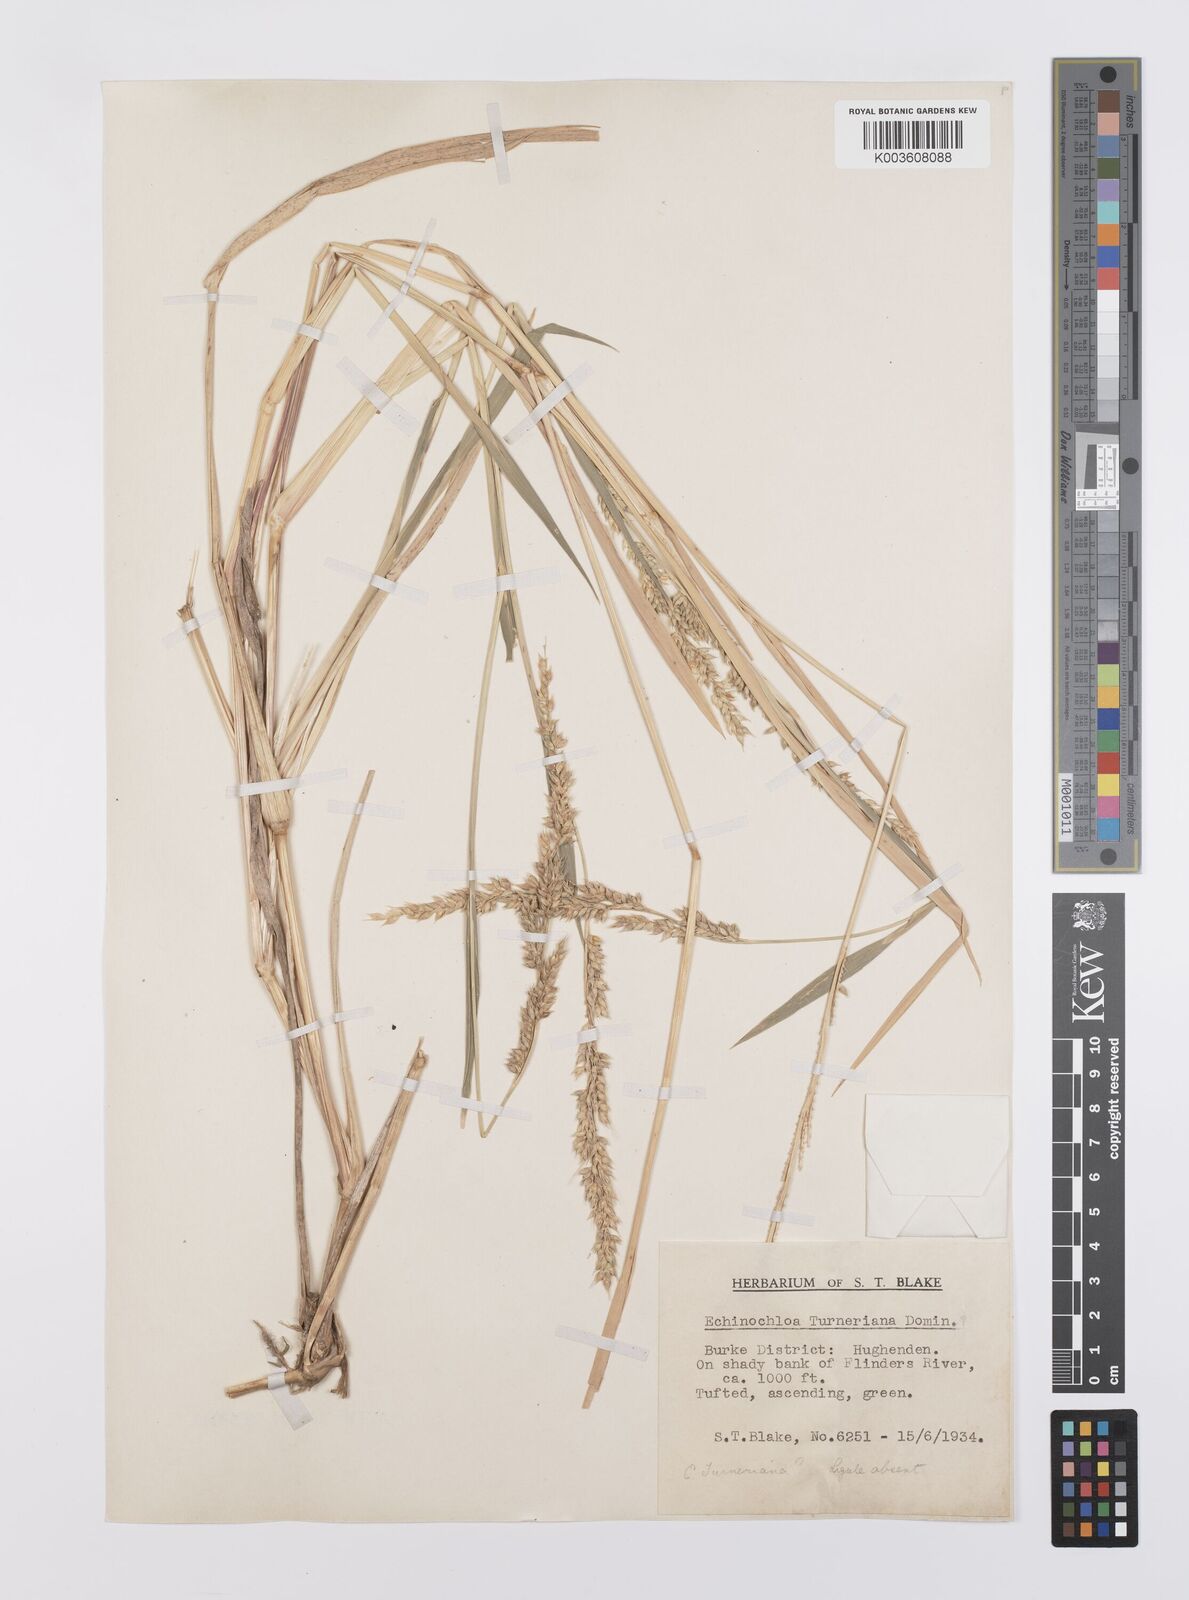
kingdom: Plantae
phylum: Tracheophyta
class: Liliopsida
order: Poales
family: Poaceae
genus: Echinochloa
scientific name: Echinochloa turneriana
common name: Channel millet
